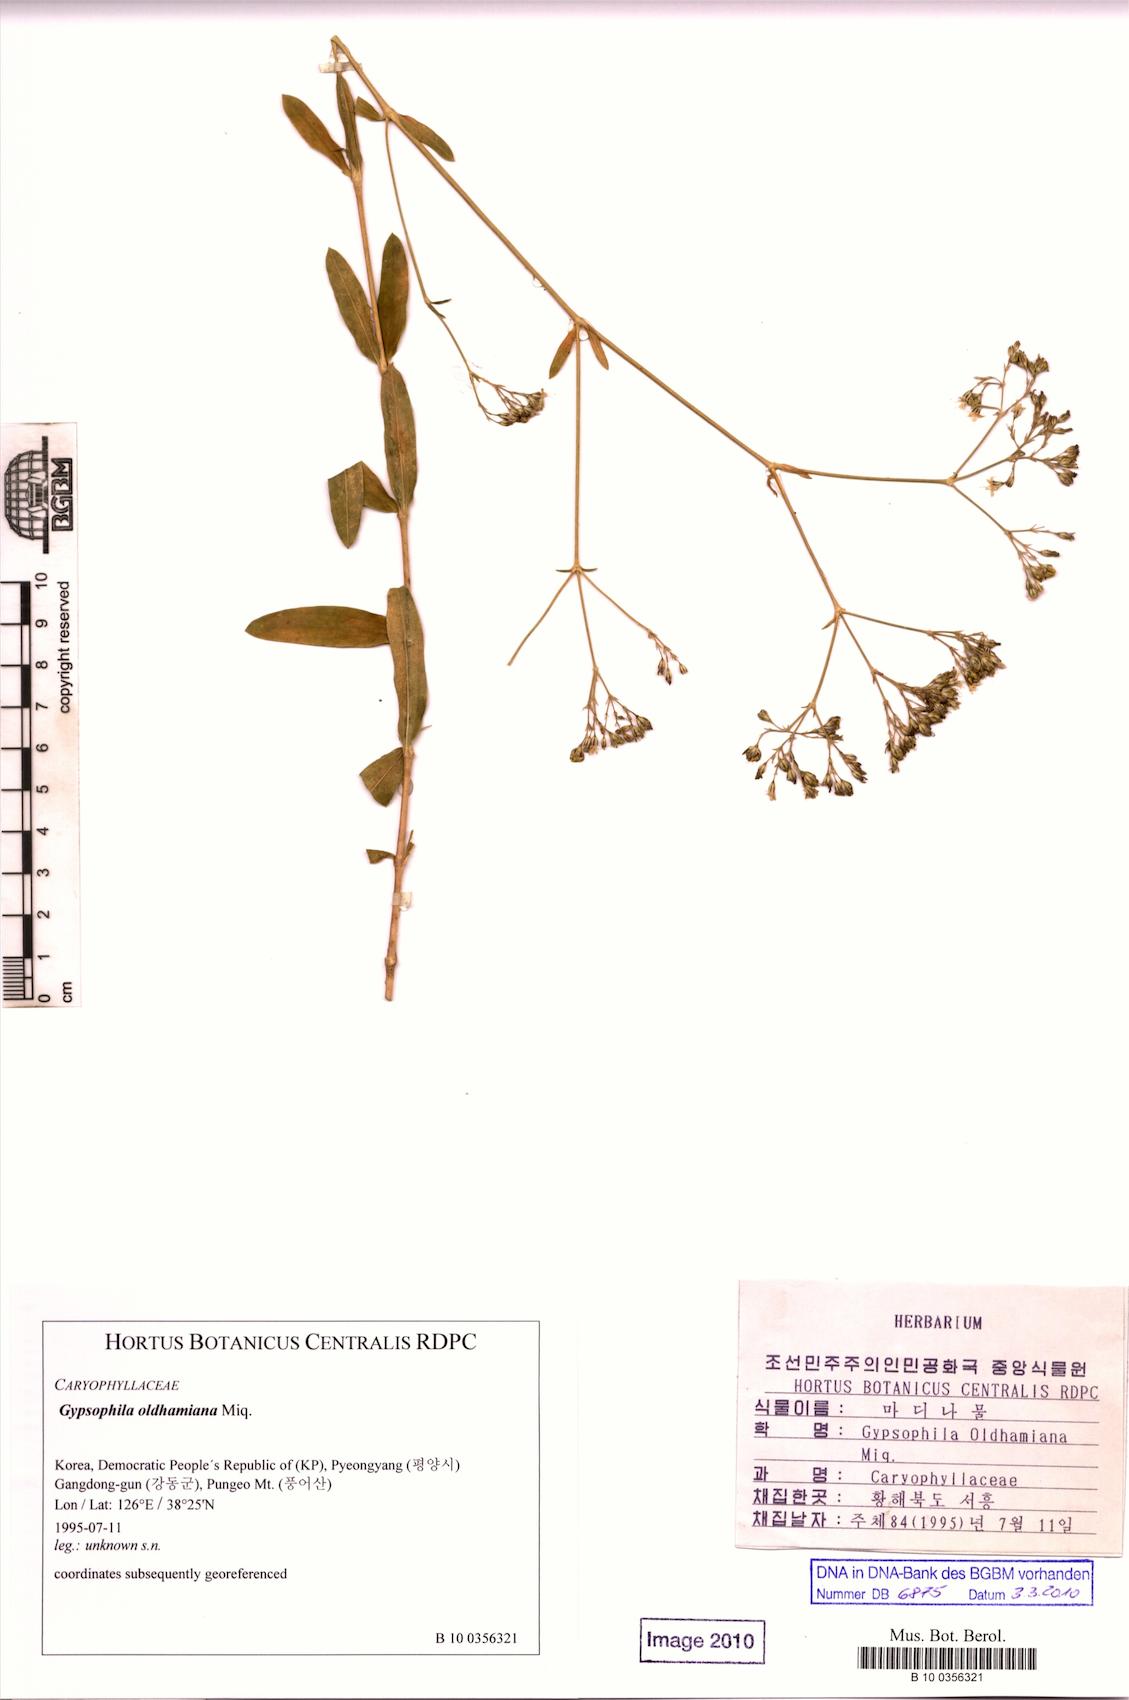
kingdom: Plantae
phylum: Tracheophyta
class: Magnoliopsida
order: Caryophyllales
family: Caryophyllaceae
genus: Gypsophila
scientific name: Gypsophila oldhamiana
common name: Oldham's baby's-breath
